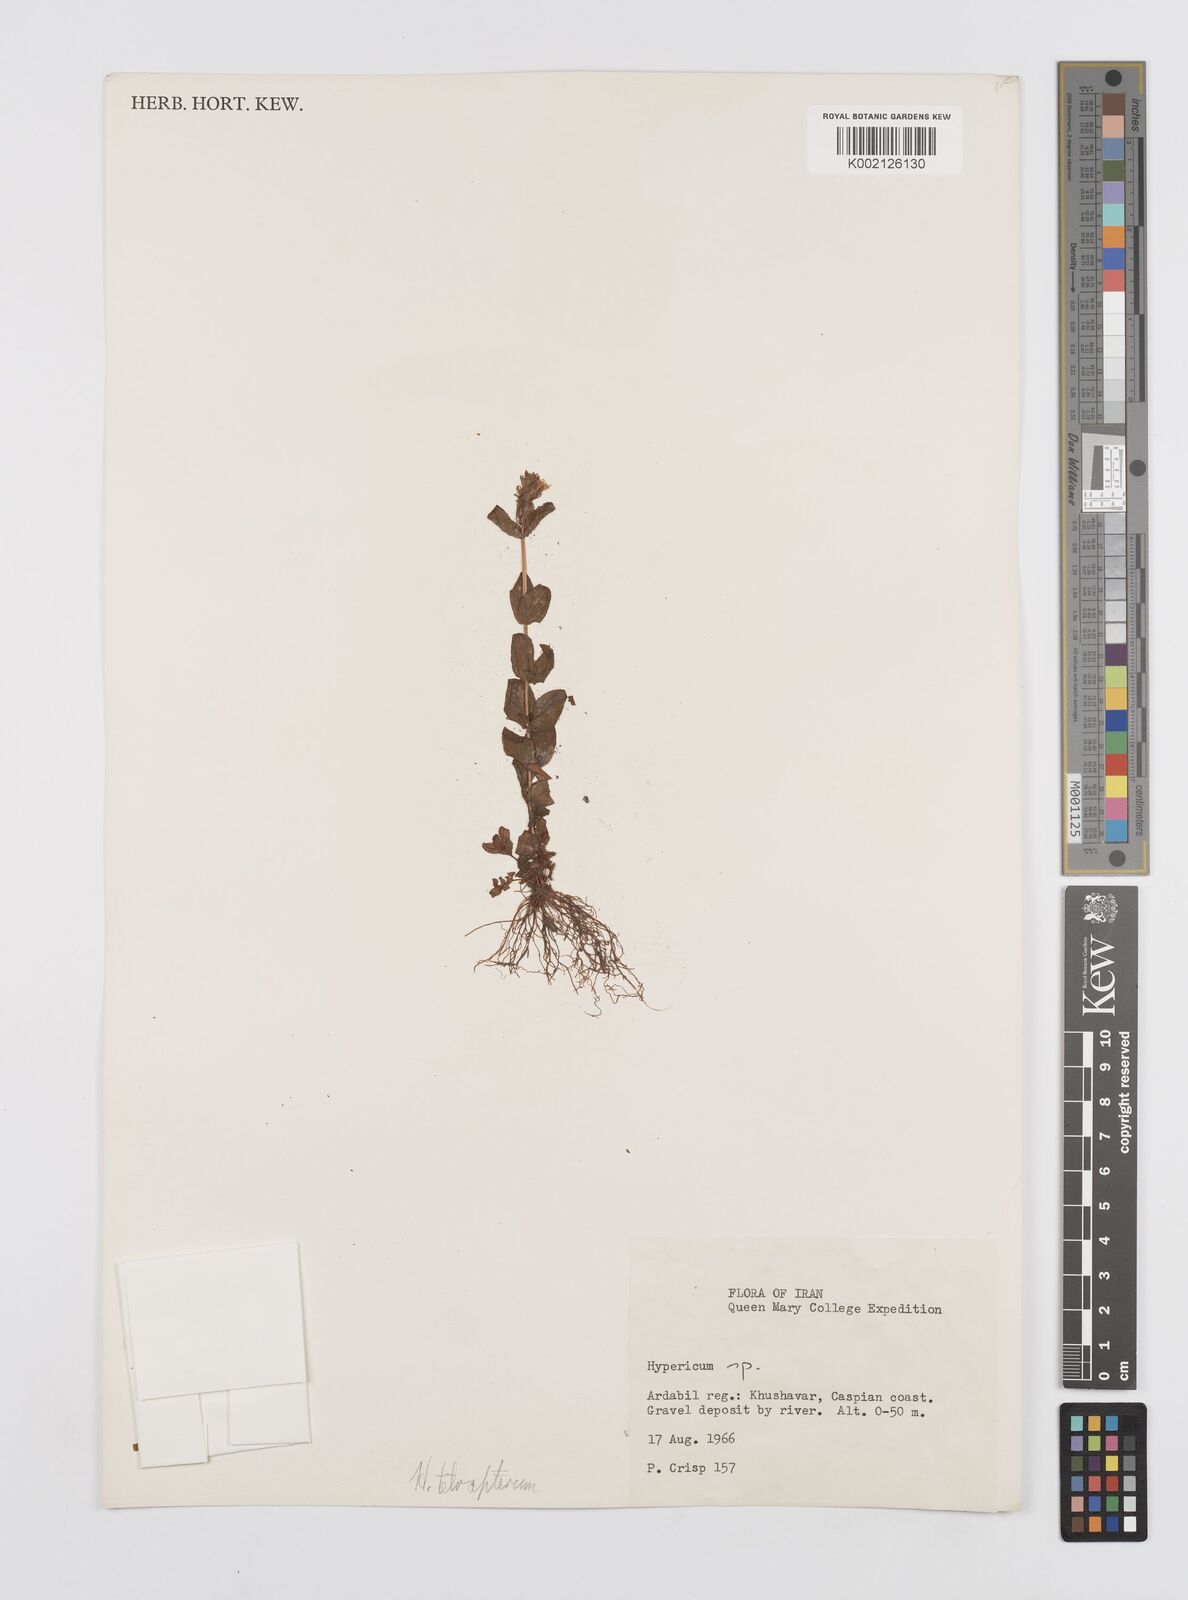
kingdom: Plantae
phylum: Tracheophyta
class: Magnoliopsida
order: Malpighiales
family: Hypericaceae
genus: Hypericum
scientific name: Hypericum tetrapterum
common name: Square-stalked st. john's-wort
